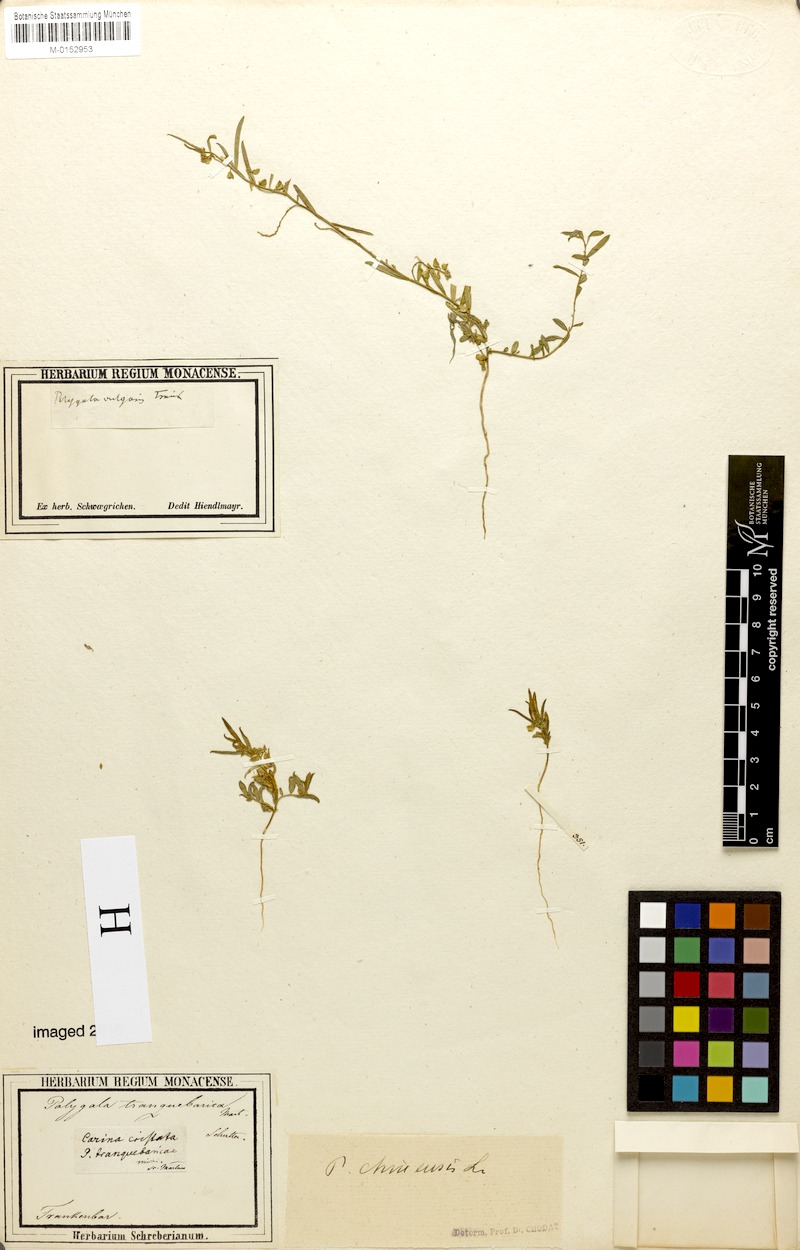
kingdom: Plantae
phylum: Tracheophyta
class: Magnoliopsida
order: Fabales
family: Polygalaceae
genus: Polygala
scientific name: Polygala glomerata
